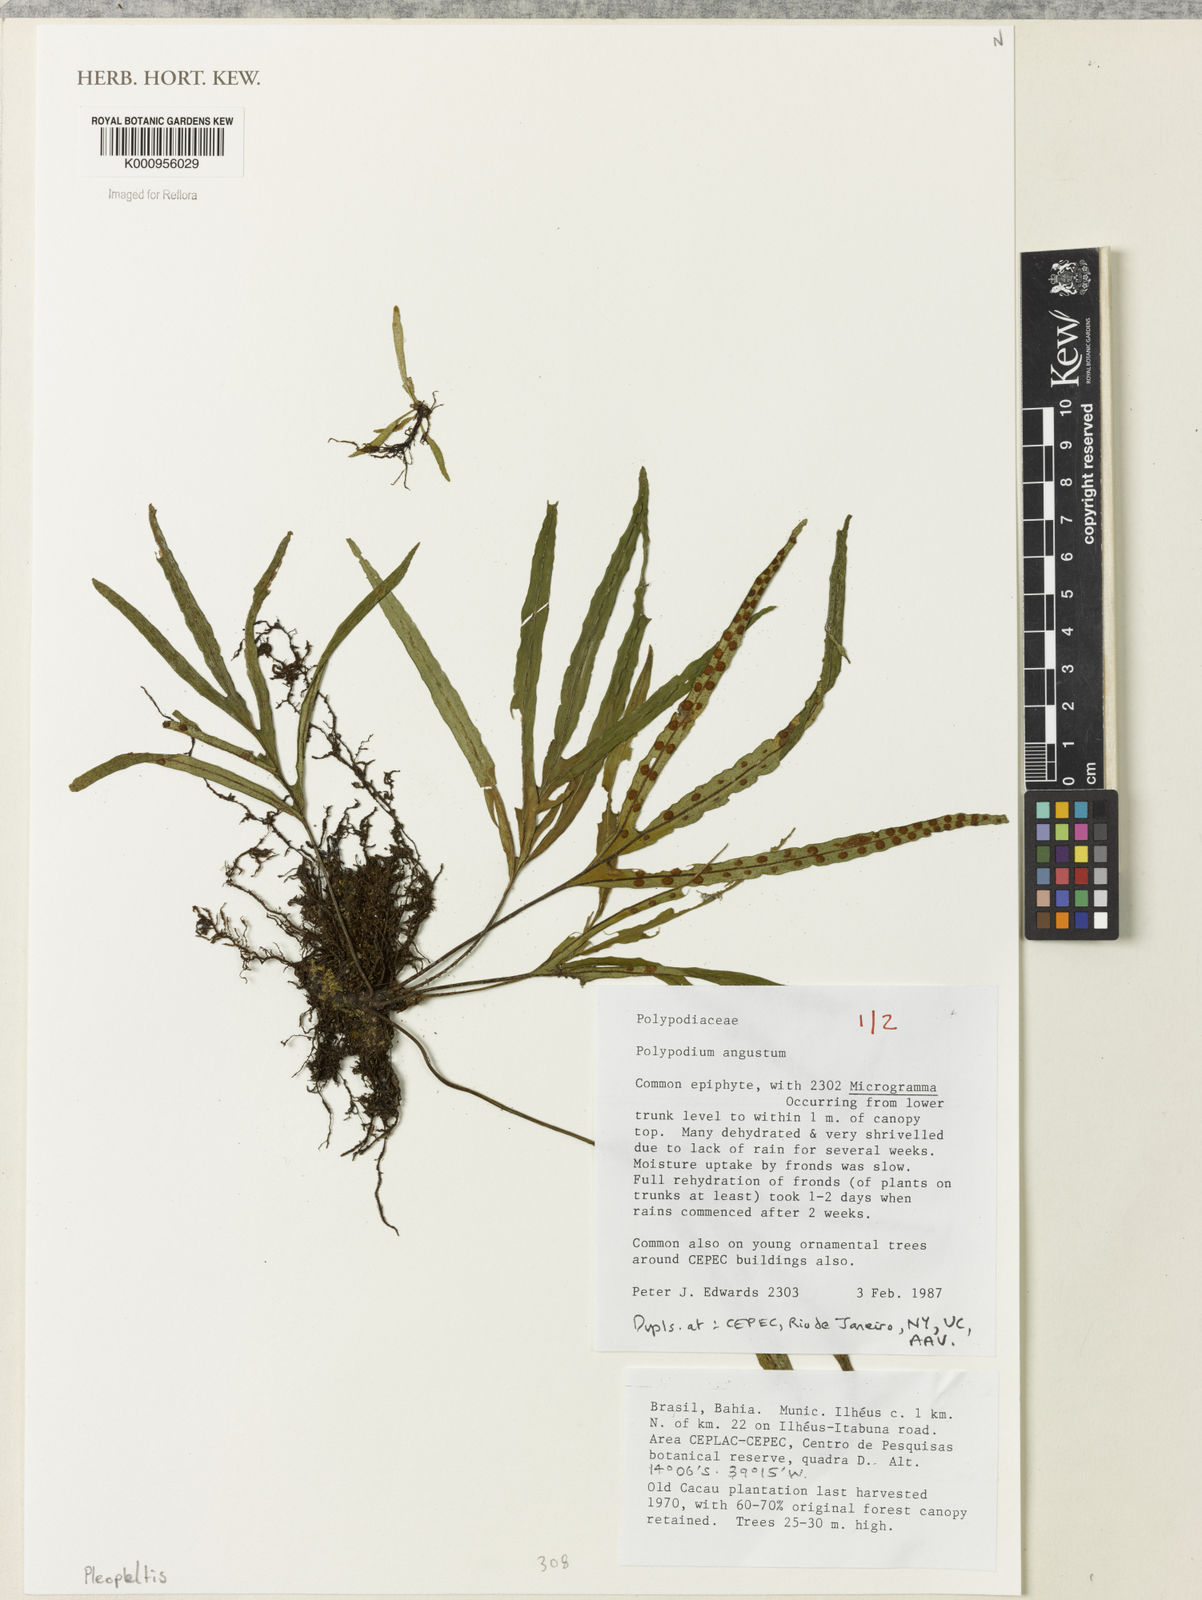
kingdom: Plantae
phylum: Tracheophyta
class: Polypodiopsida
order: Polypodiales
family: Polypodiaceae
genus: Pleopeltis
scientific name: Pleopeltis angusta
